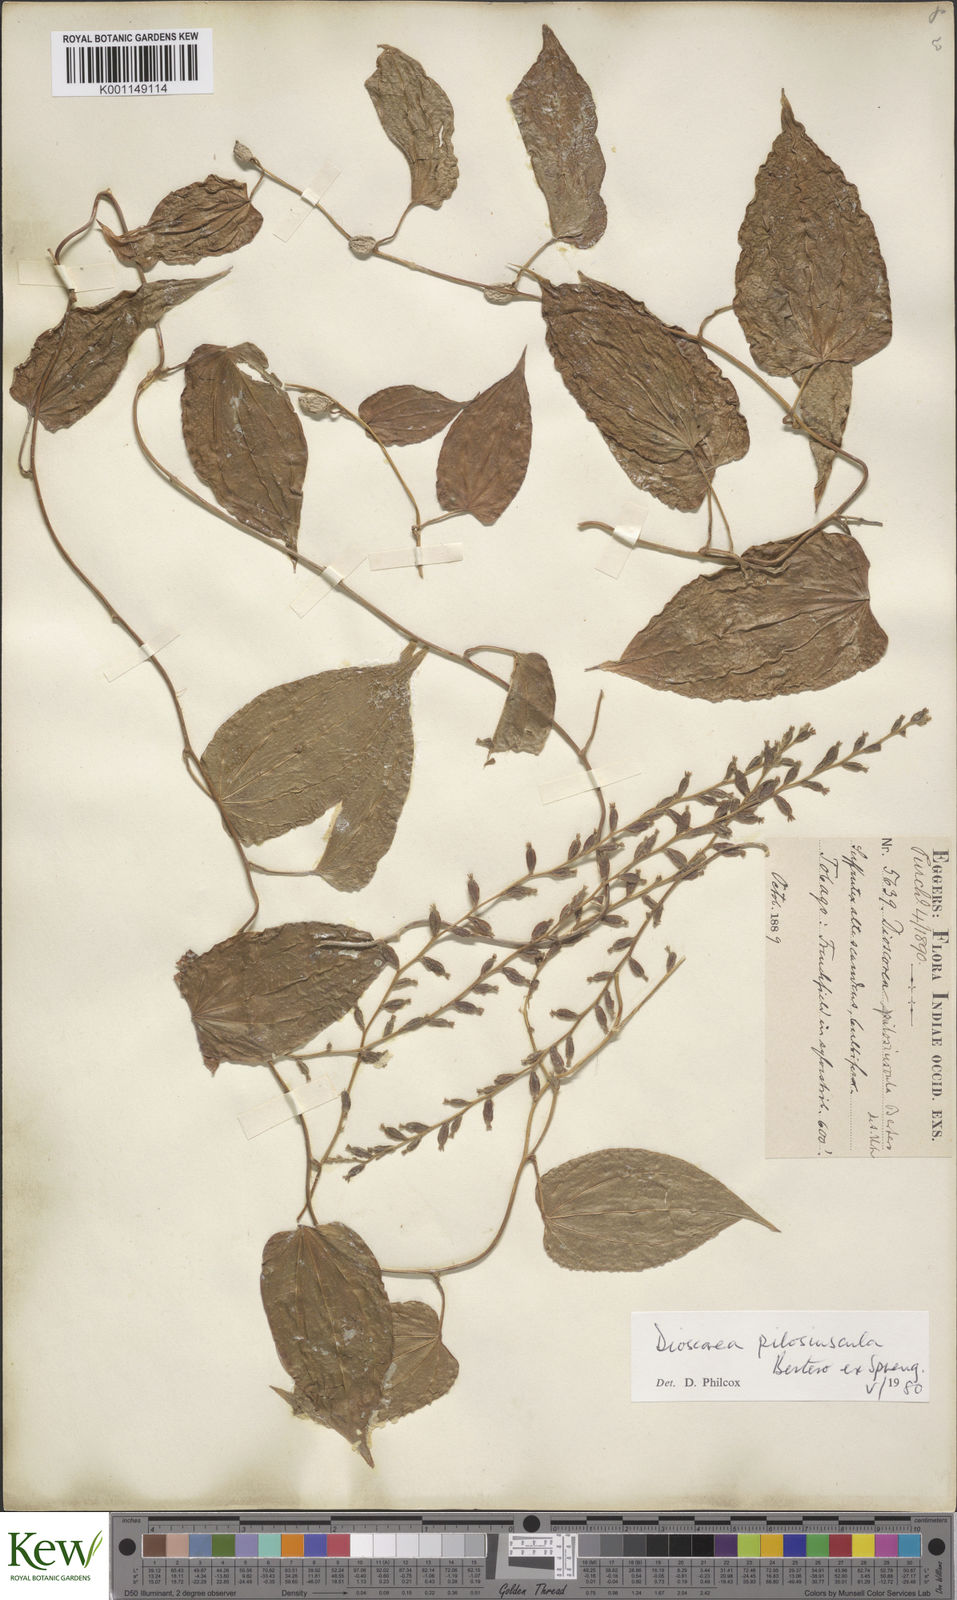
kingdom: Plantae
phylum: Tracheophyta
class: Liliopsida
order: Dioscoreales
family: Dioscoreaceae
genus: Dioscorea
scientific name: Dioscorea pilosiuscula
